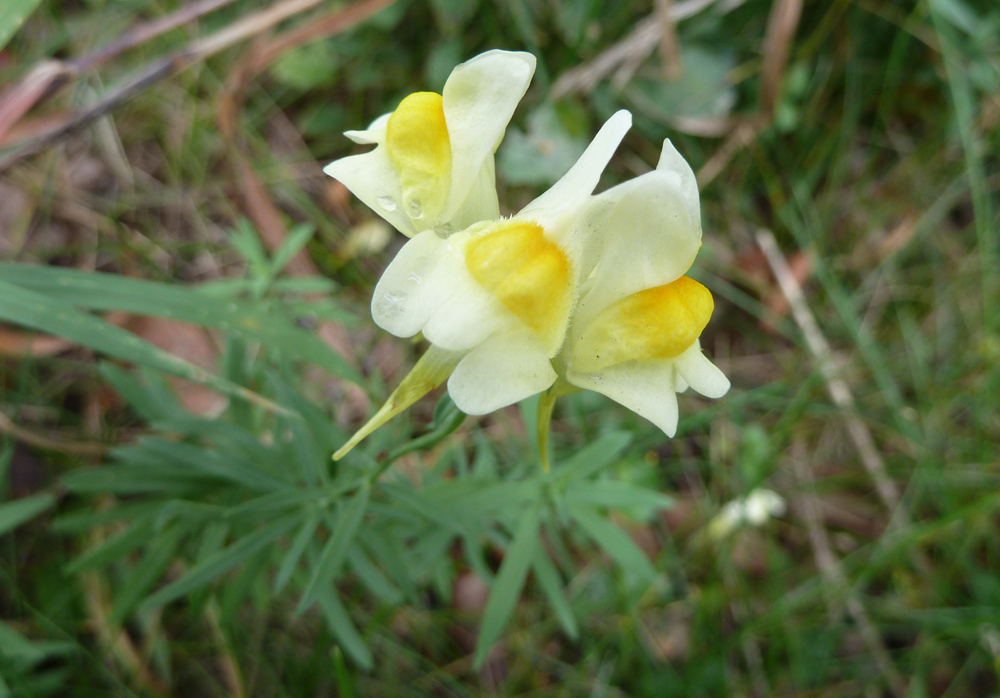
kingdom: Plantae
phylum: Tracheophyta
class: Magnoliopsida
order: Lamiales
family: Plantaginaceae
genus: Linaria
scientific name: Linaria vulgaris
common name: Butter and eggs
